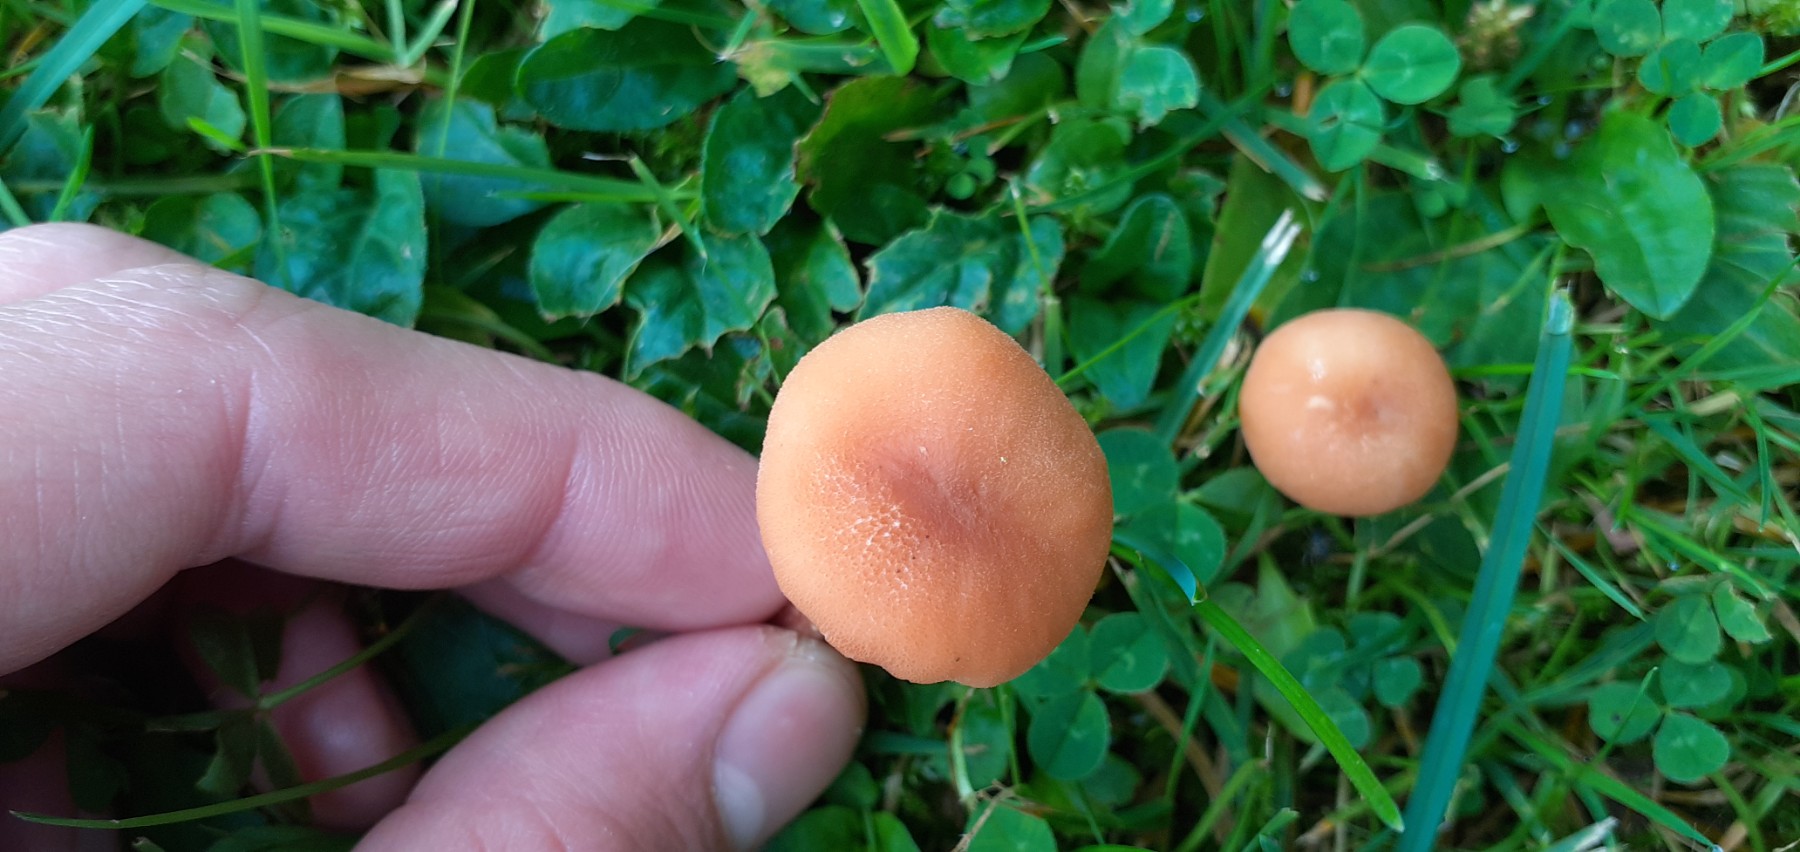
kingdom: Fungi
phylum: Basidiomycota
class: Agaricomycetes
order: Agaricales
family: Hydnangiaceae
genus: Laccaria
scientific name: Laccaria laccata
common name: rød ametysthat
